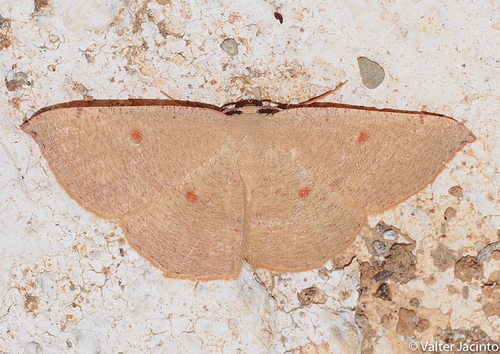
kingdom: Animalia
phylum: Arthropoda
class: Insecta
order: Lepidoptera
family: Geometridae
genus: Cyclophora
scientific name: Cyclophora puppillaria
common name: Blair's mocha
